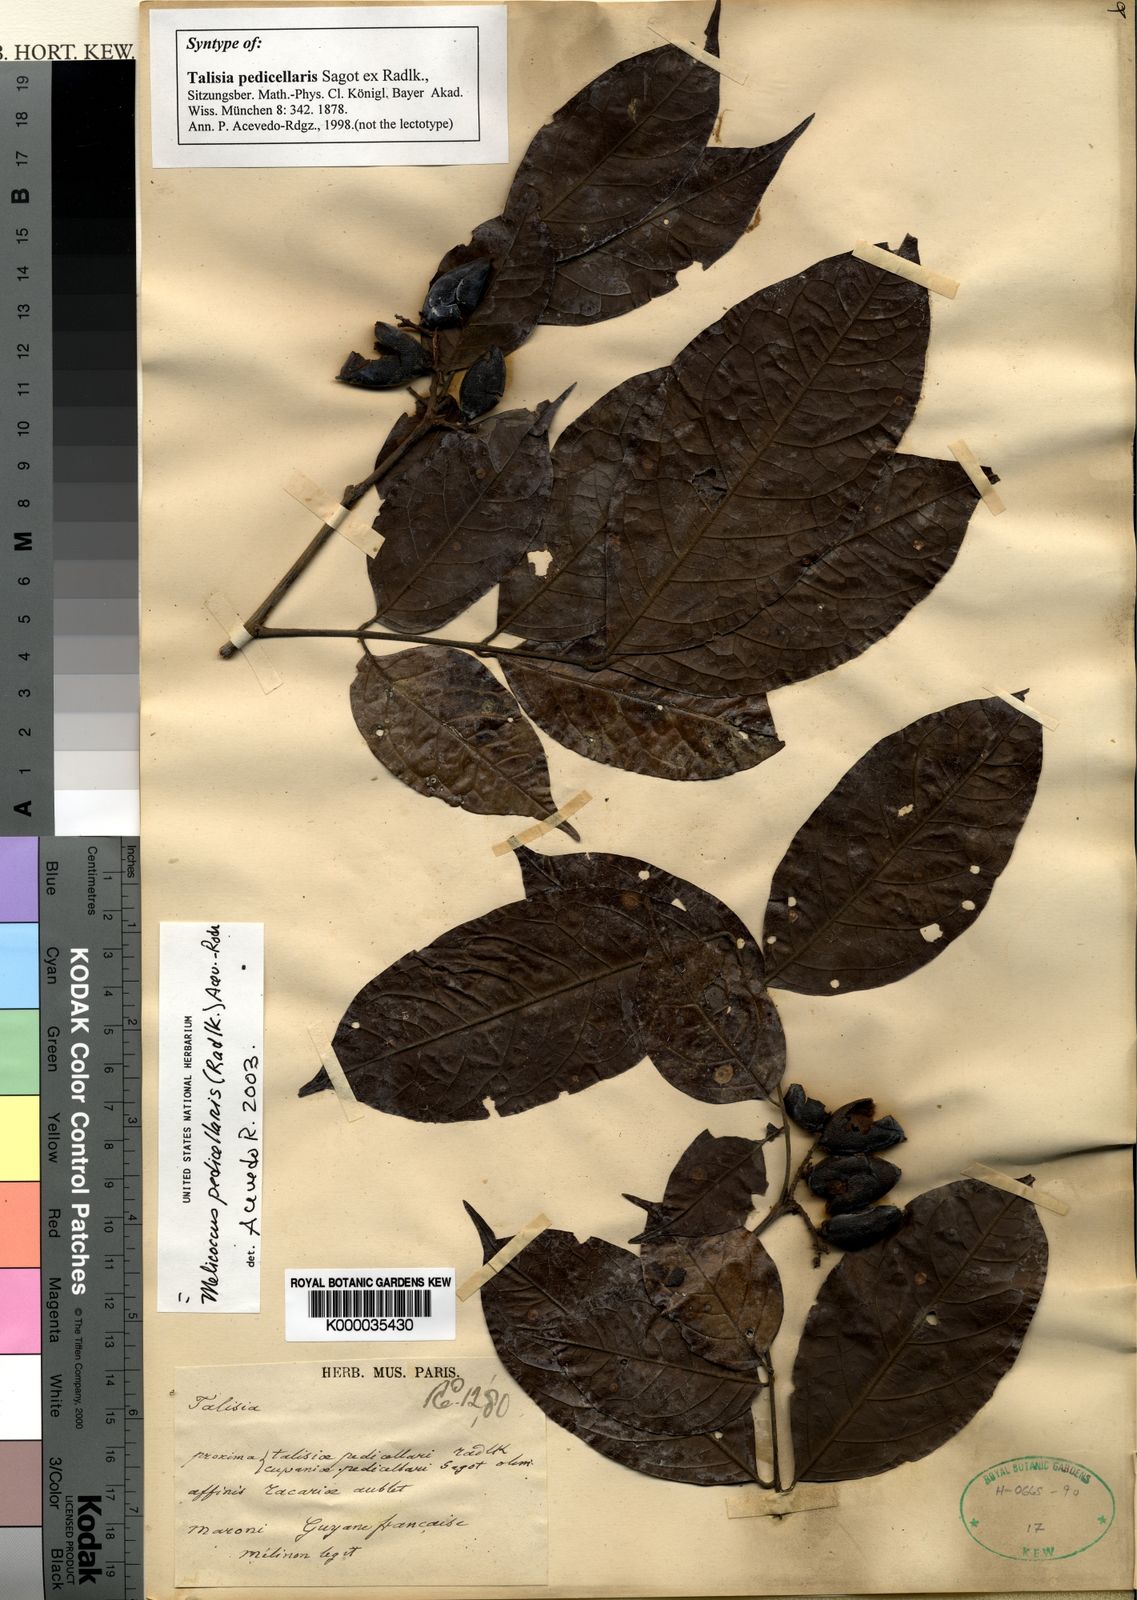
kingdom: Plantae
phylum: Tracheophyta
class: Magnoliopsida
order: Sapindales
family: Sapindaceae
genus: Melicoccus
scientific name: Melicoccus
